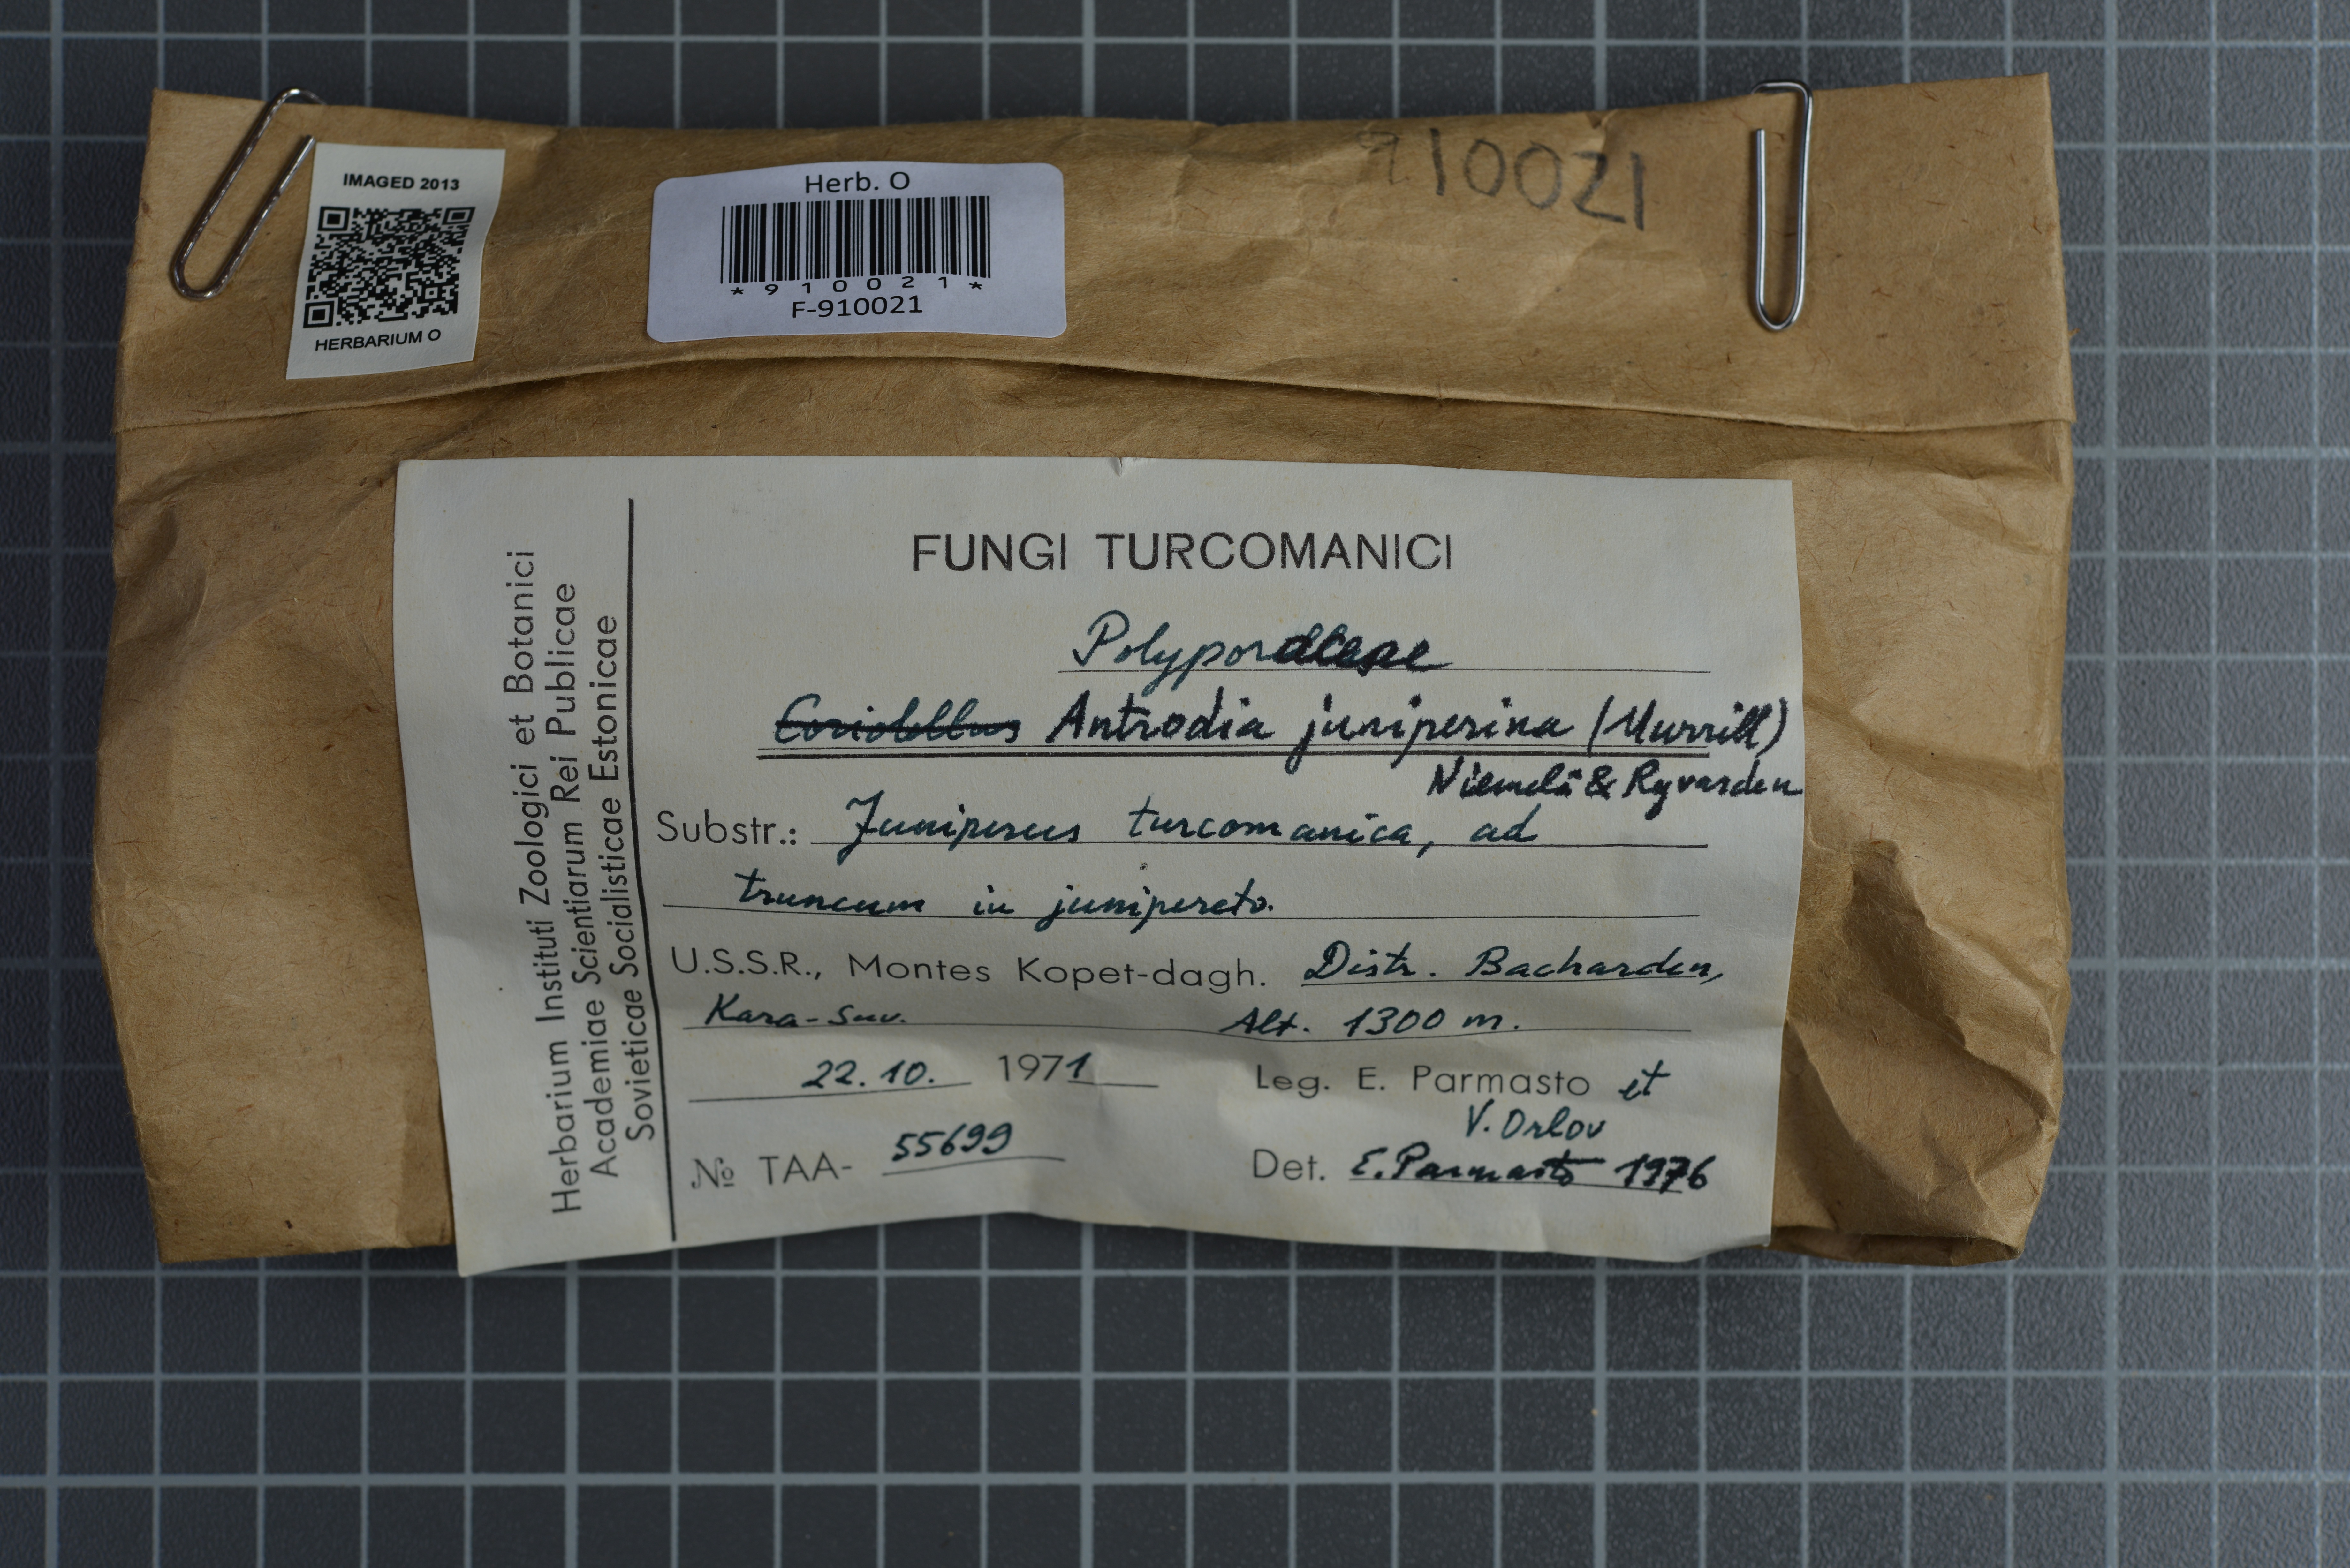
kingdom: Fungi
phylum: Basidiomycota
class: Agaricomycetes
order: Polyporales
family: Fomitopsidaceae
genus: Brunneoporus
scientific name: Brunneoporus juniperinus
